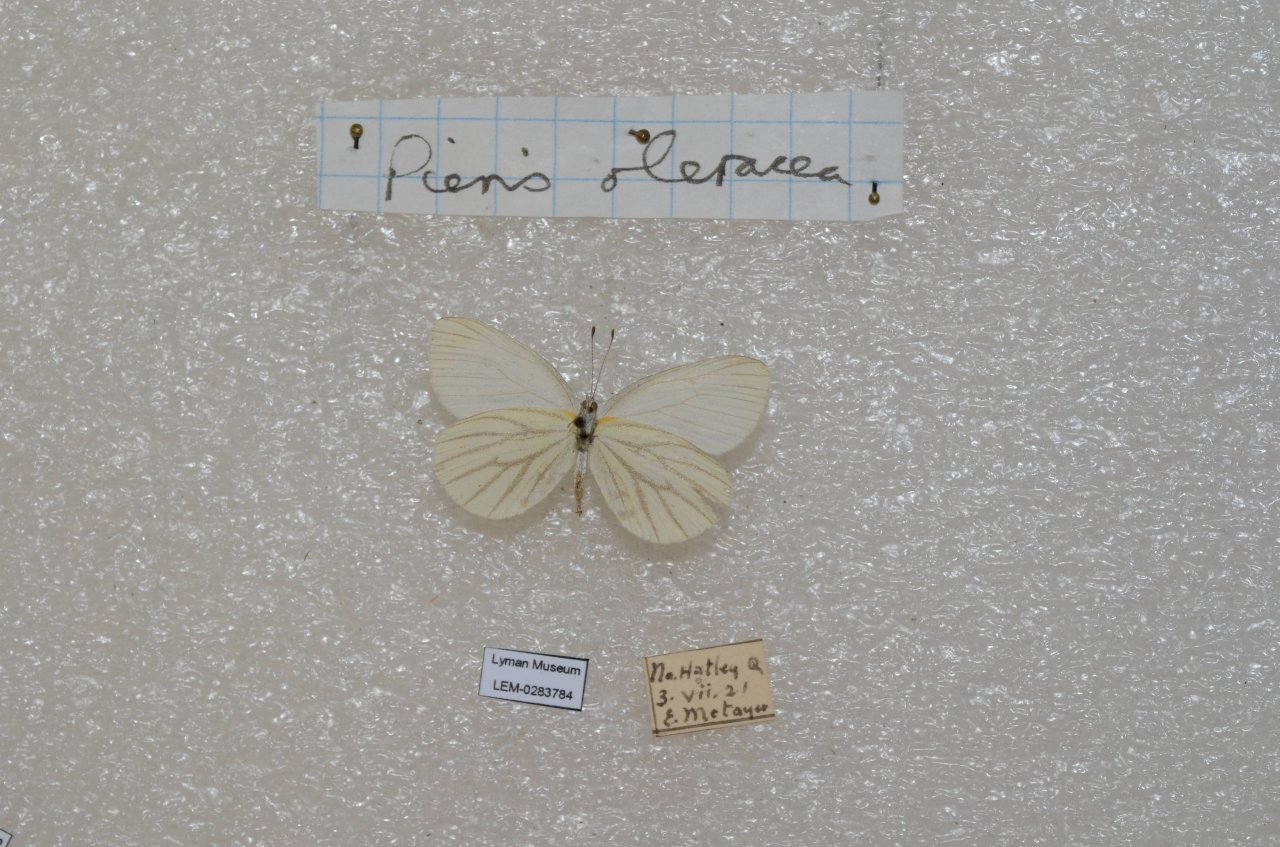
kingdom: Animalia
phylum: Arthropoda
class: Insecta
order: Lepidoptera
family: Pieridae
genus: Pieris
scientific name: Pieris oleracea
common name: Mustard White
